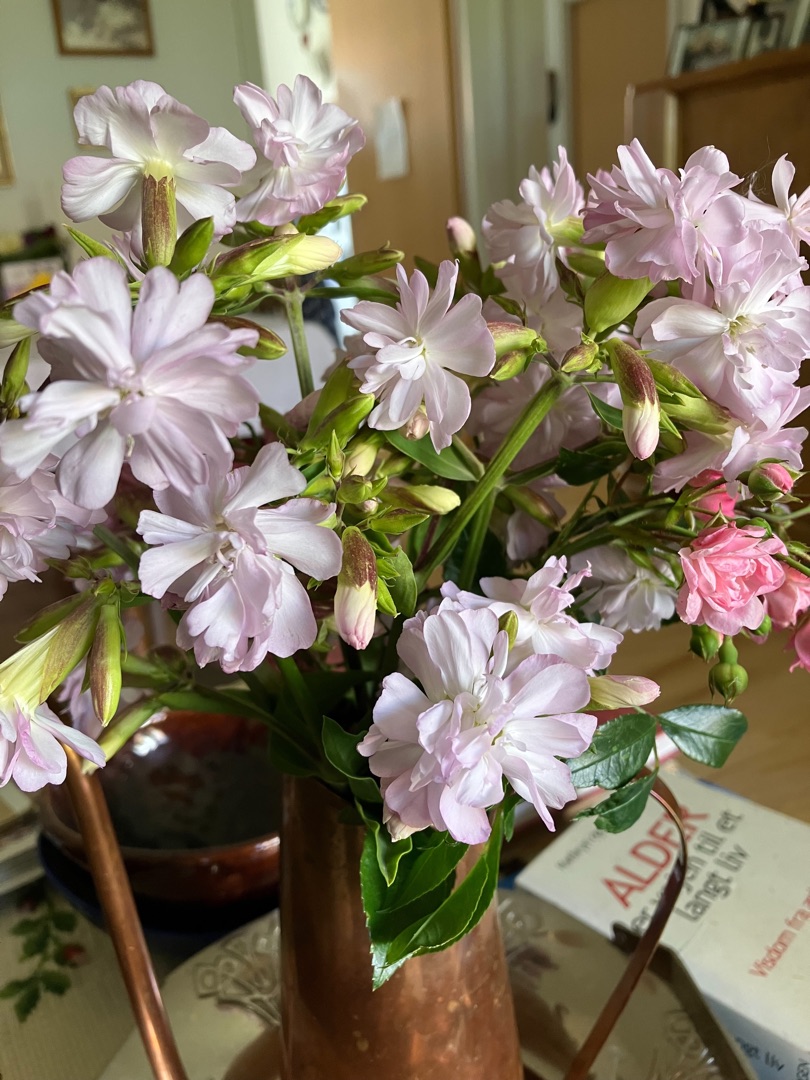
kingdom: Plantae
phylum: Tracheophyta
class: Magnoliopsida
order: Caryophyllales
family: Caryophyllaceae
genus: Saponaria
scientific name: Saponaria officinalis
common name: Sæbeurt
